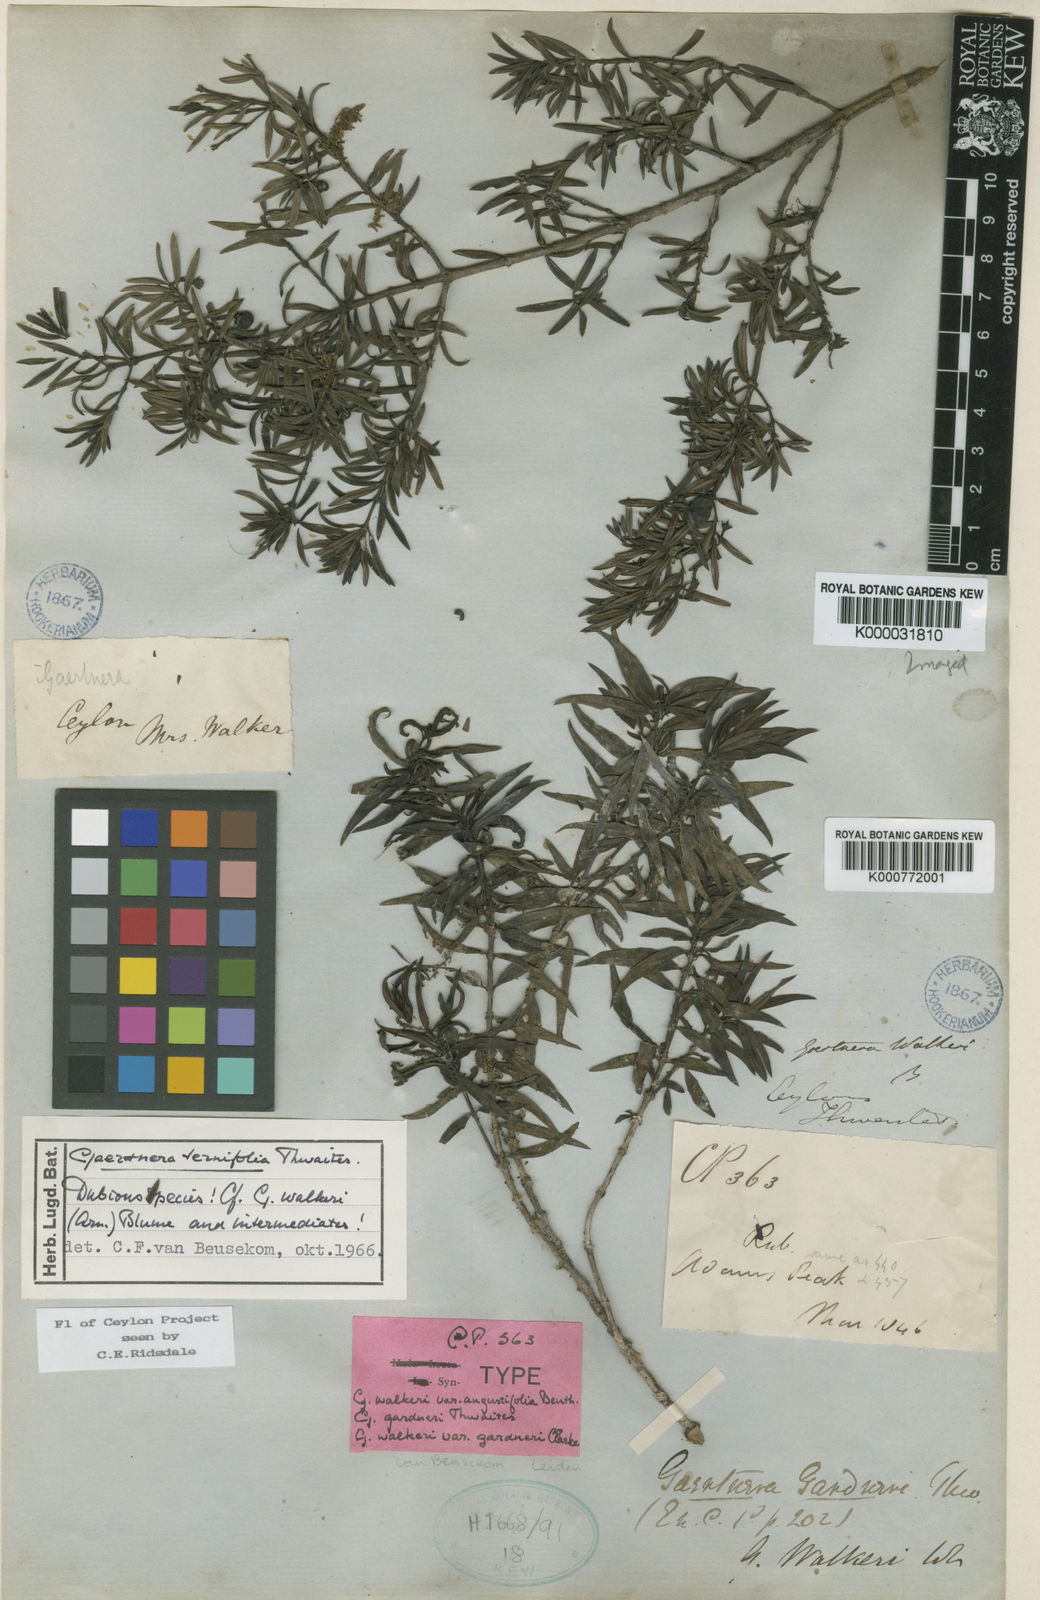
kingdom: Plantae
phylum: Tracheophyta
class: Magnoliopsida
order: Gentianales
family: Rubiaceae
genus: Gaertnera
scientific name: Gaertnera ternifolia
